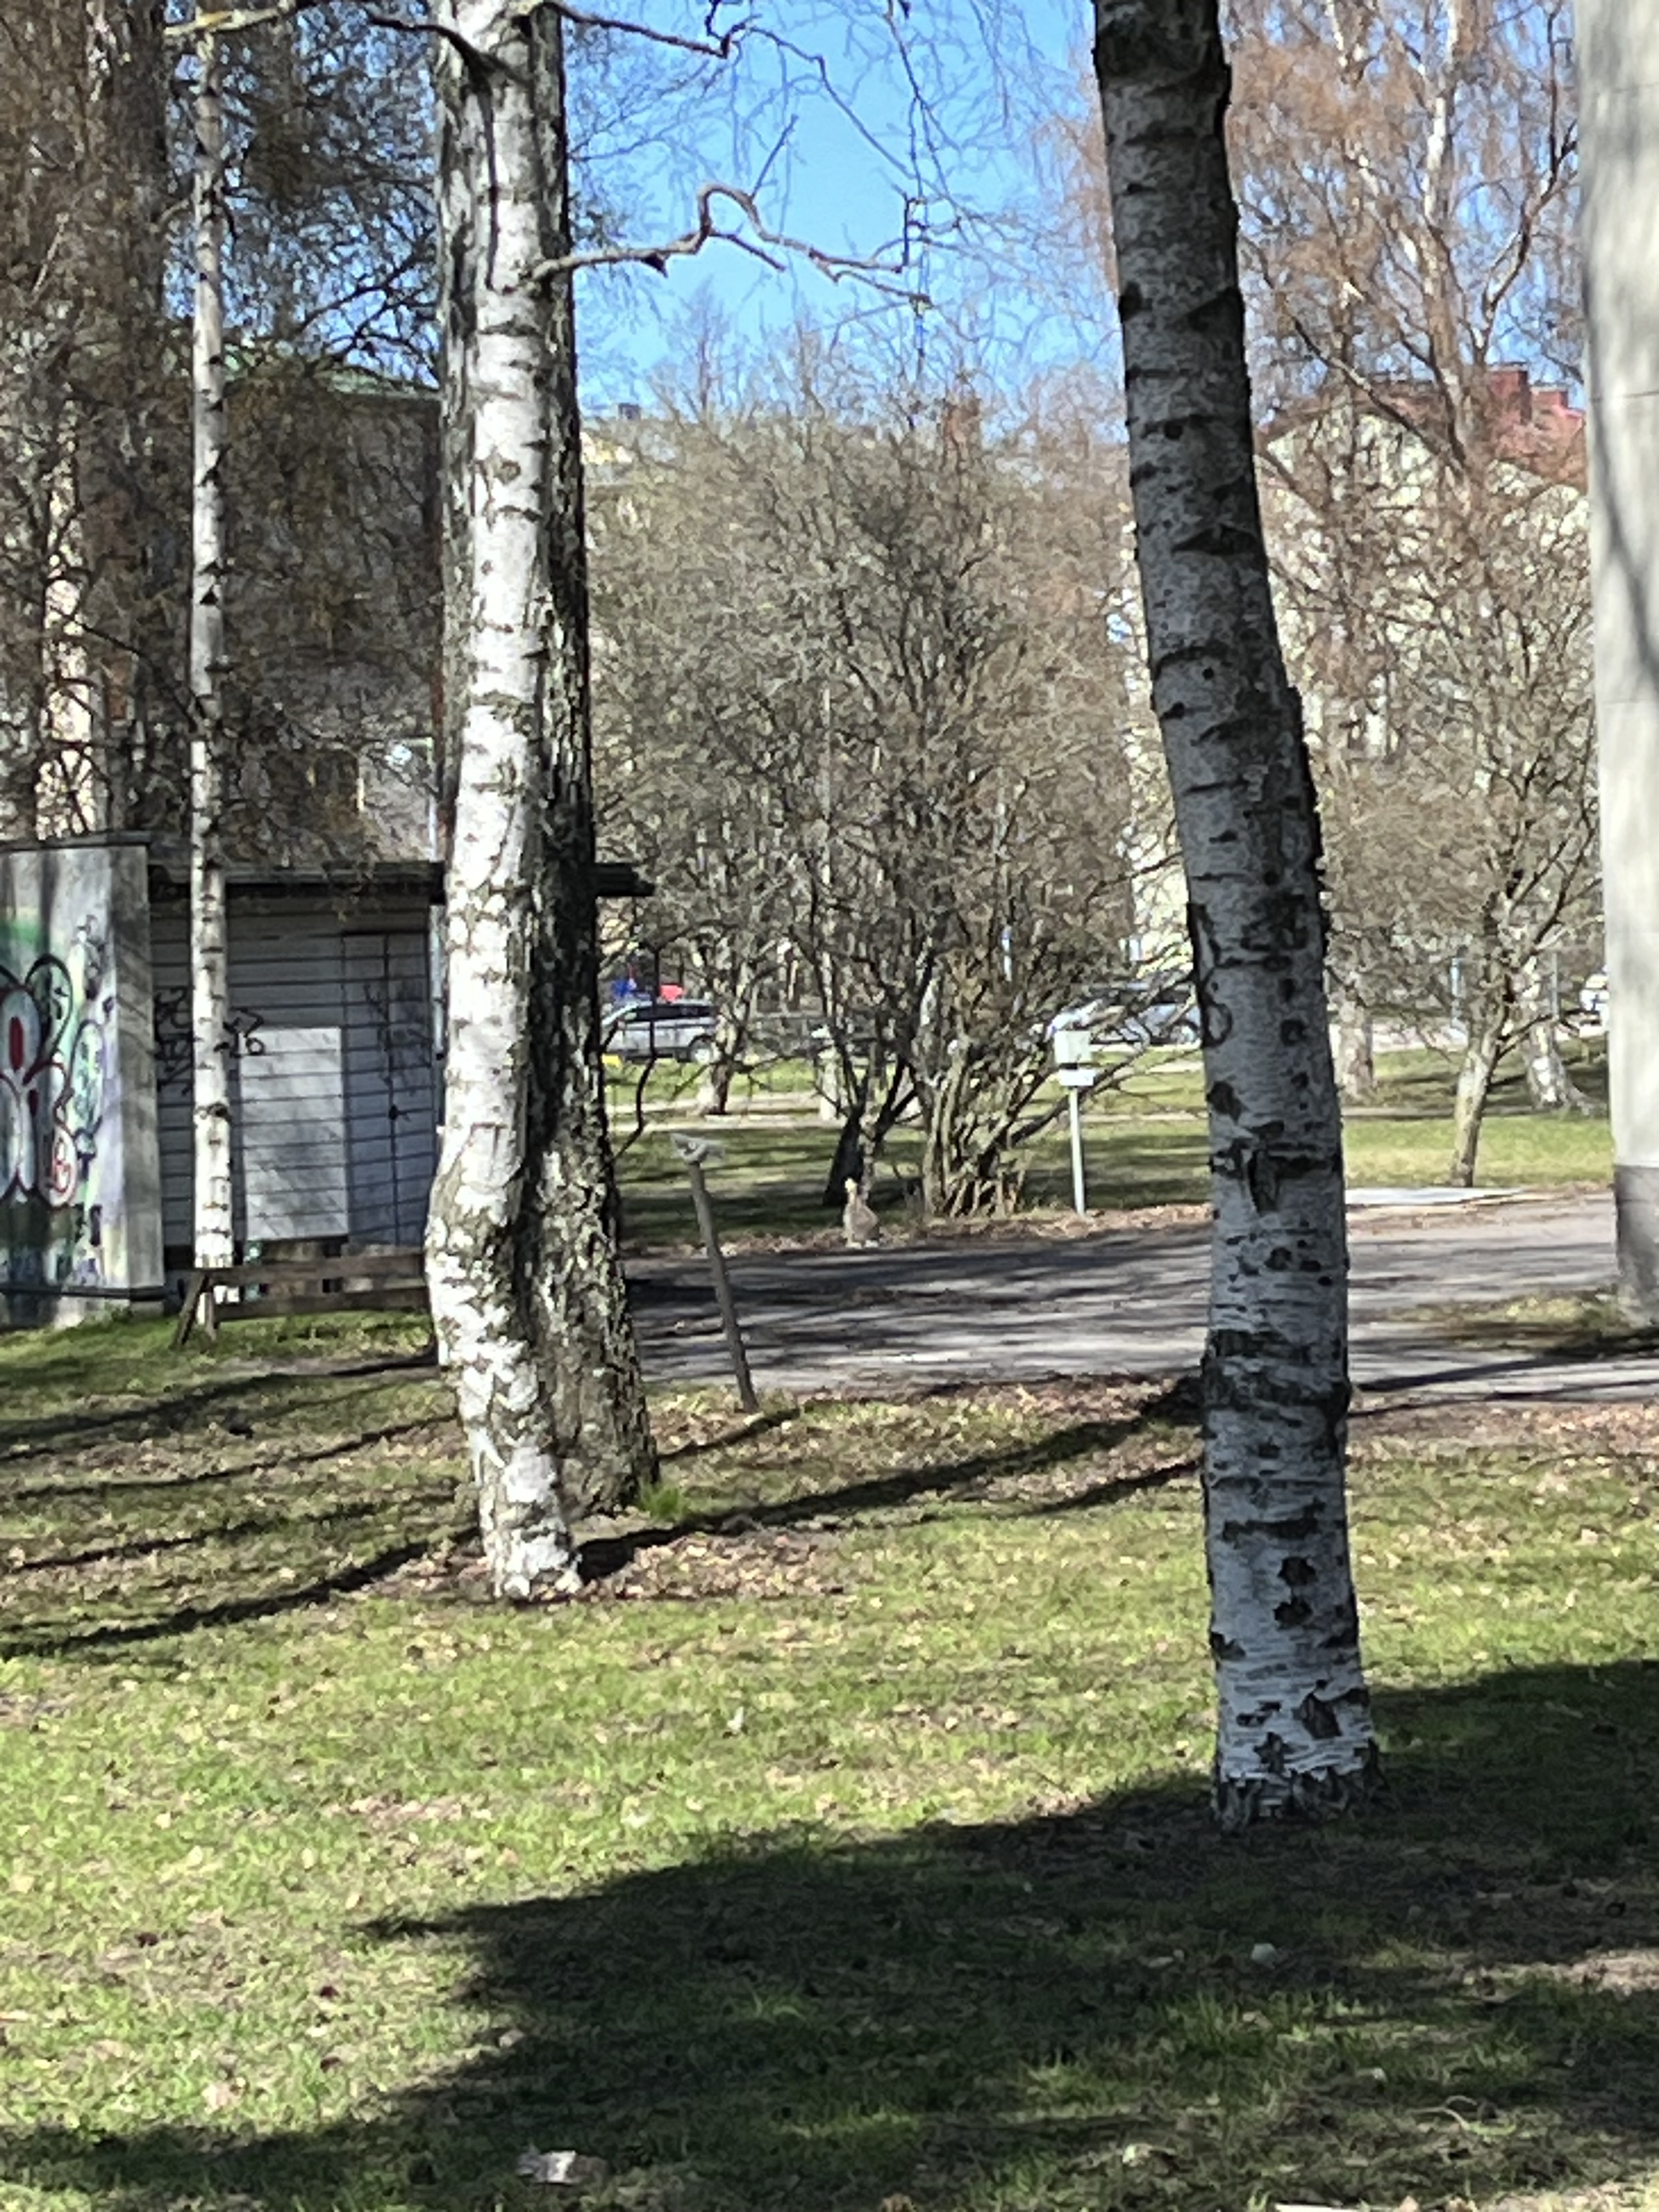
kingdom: Animalia
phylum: Chordata
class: Mammalia
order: Lagomorpha
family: Leporidae
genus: Lepus
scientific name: Lepus europaeus
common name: European hare
